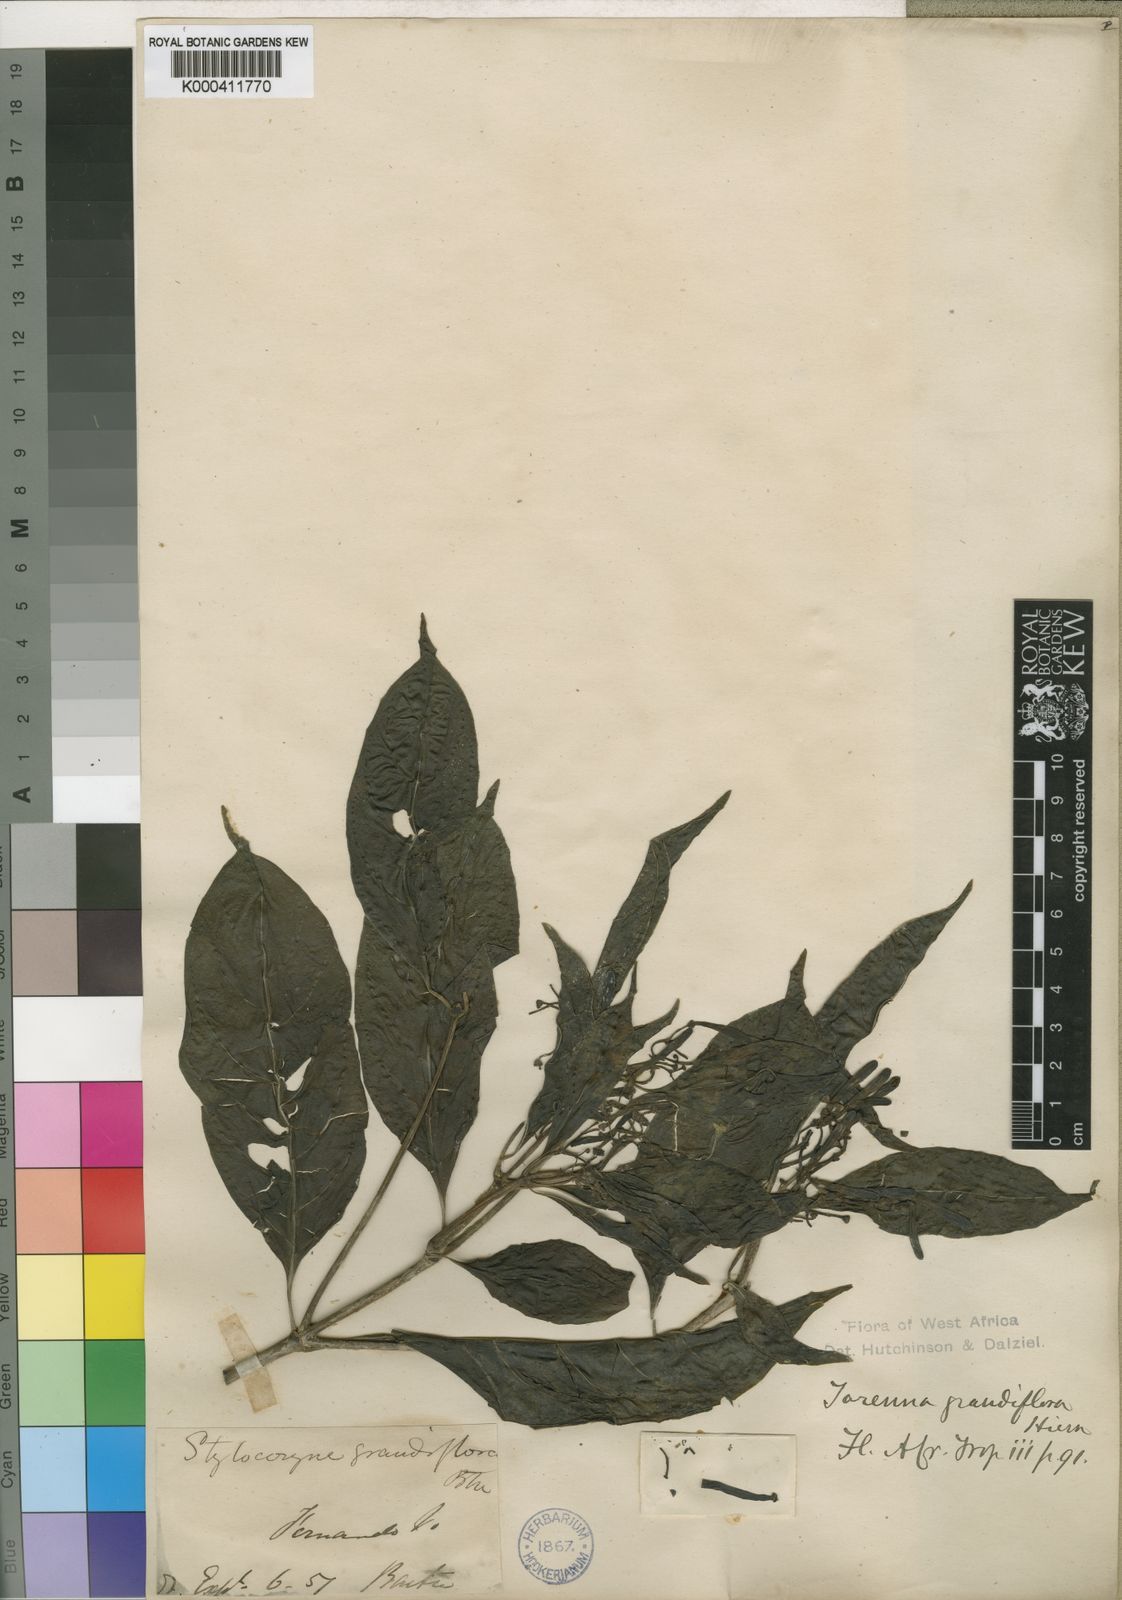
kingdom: Plantae
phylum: Tracheophyta
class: Magnoliopsida
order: Gentianales
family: Rubiaceae
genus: Tarenna
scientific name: Tarenna grandiflora
